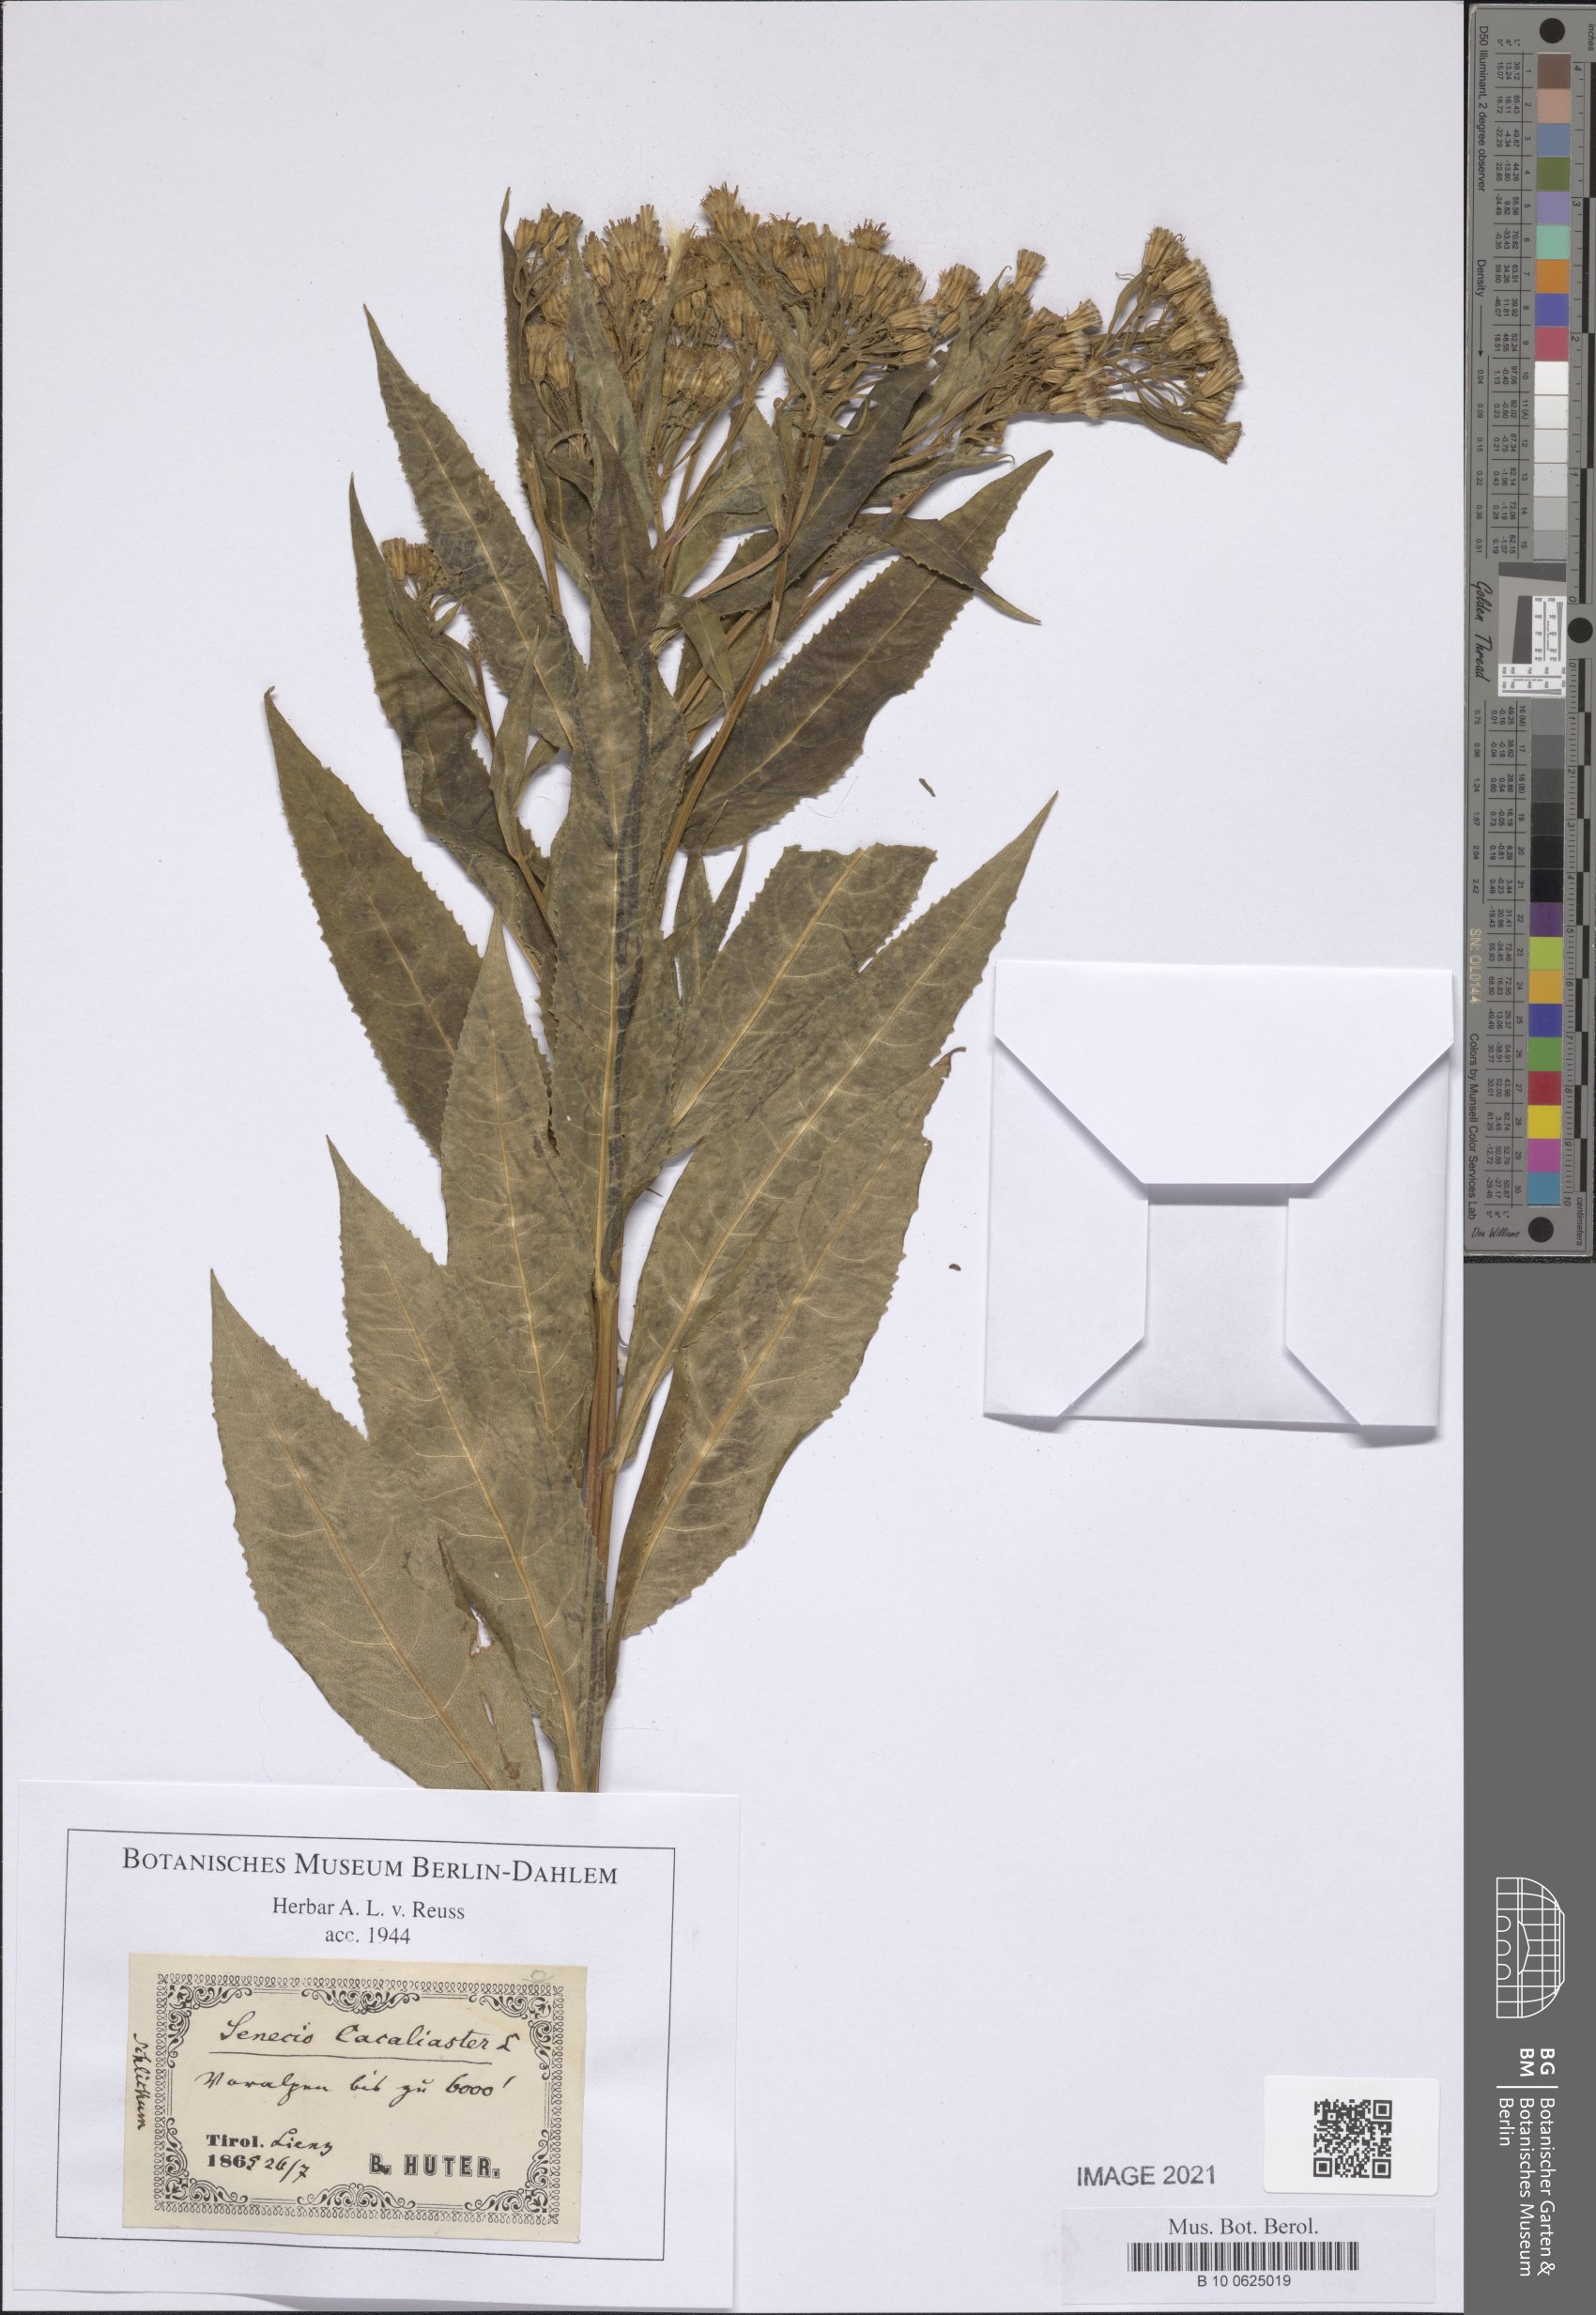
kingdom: Plantae
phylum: Tracheophyta
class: Magnoliopsida
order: Asterales
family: Asteraceae
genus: Senecio
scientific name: Senecio cacaliaster
